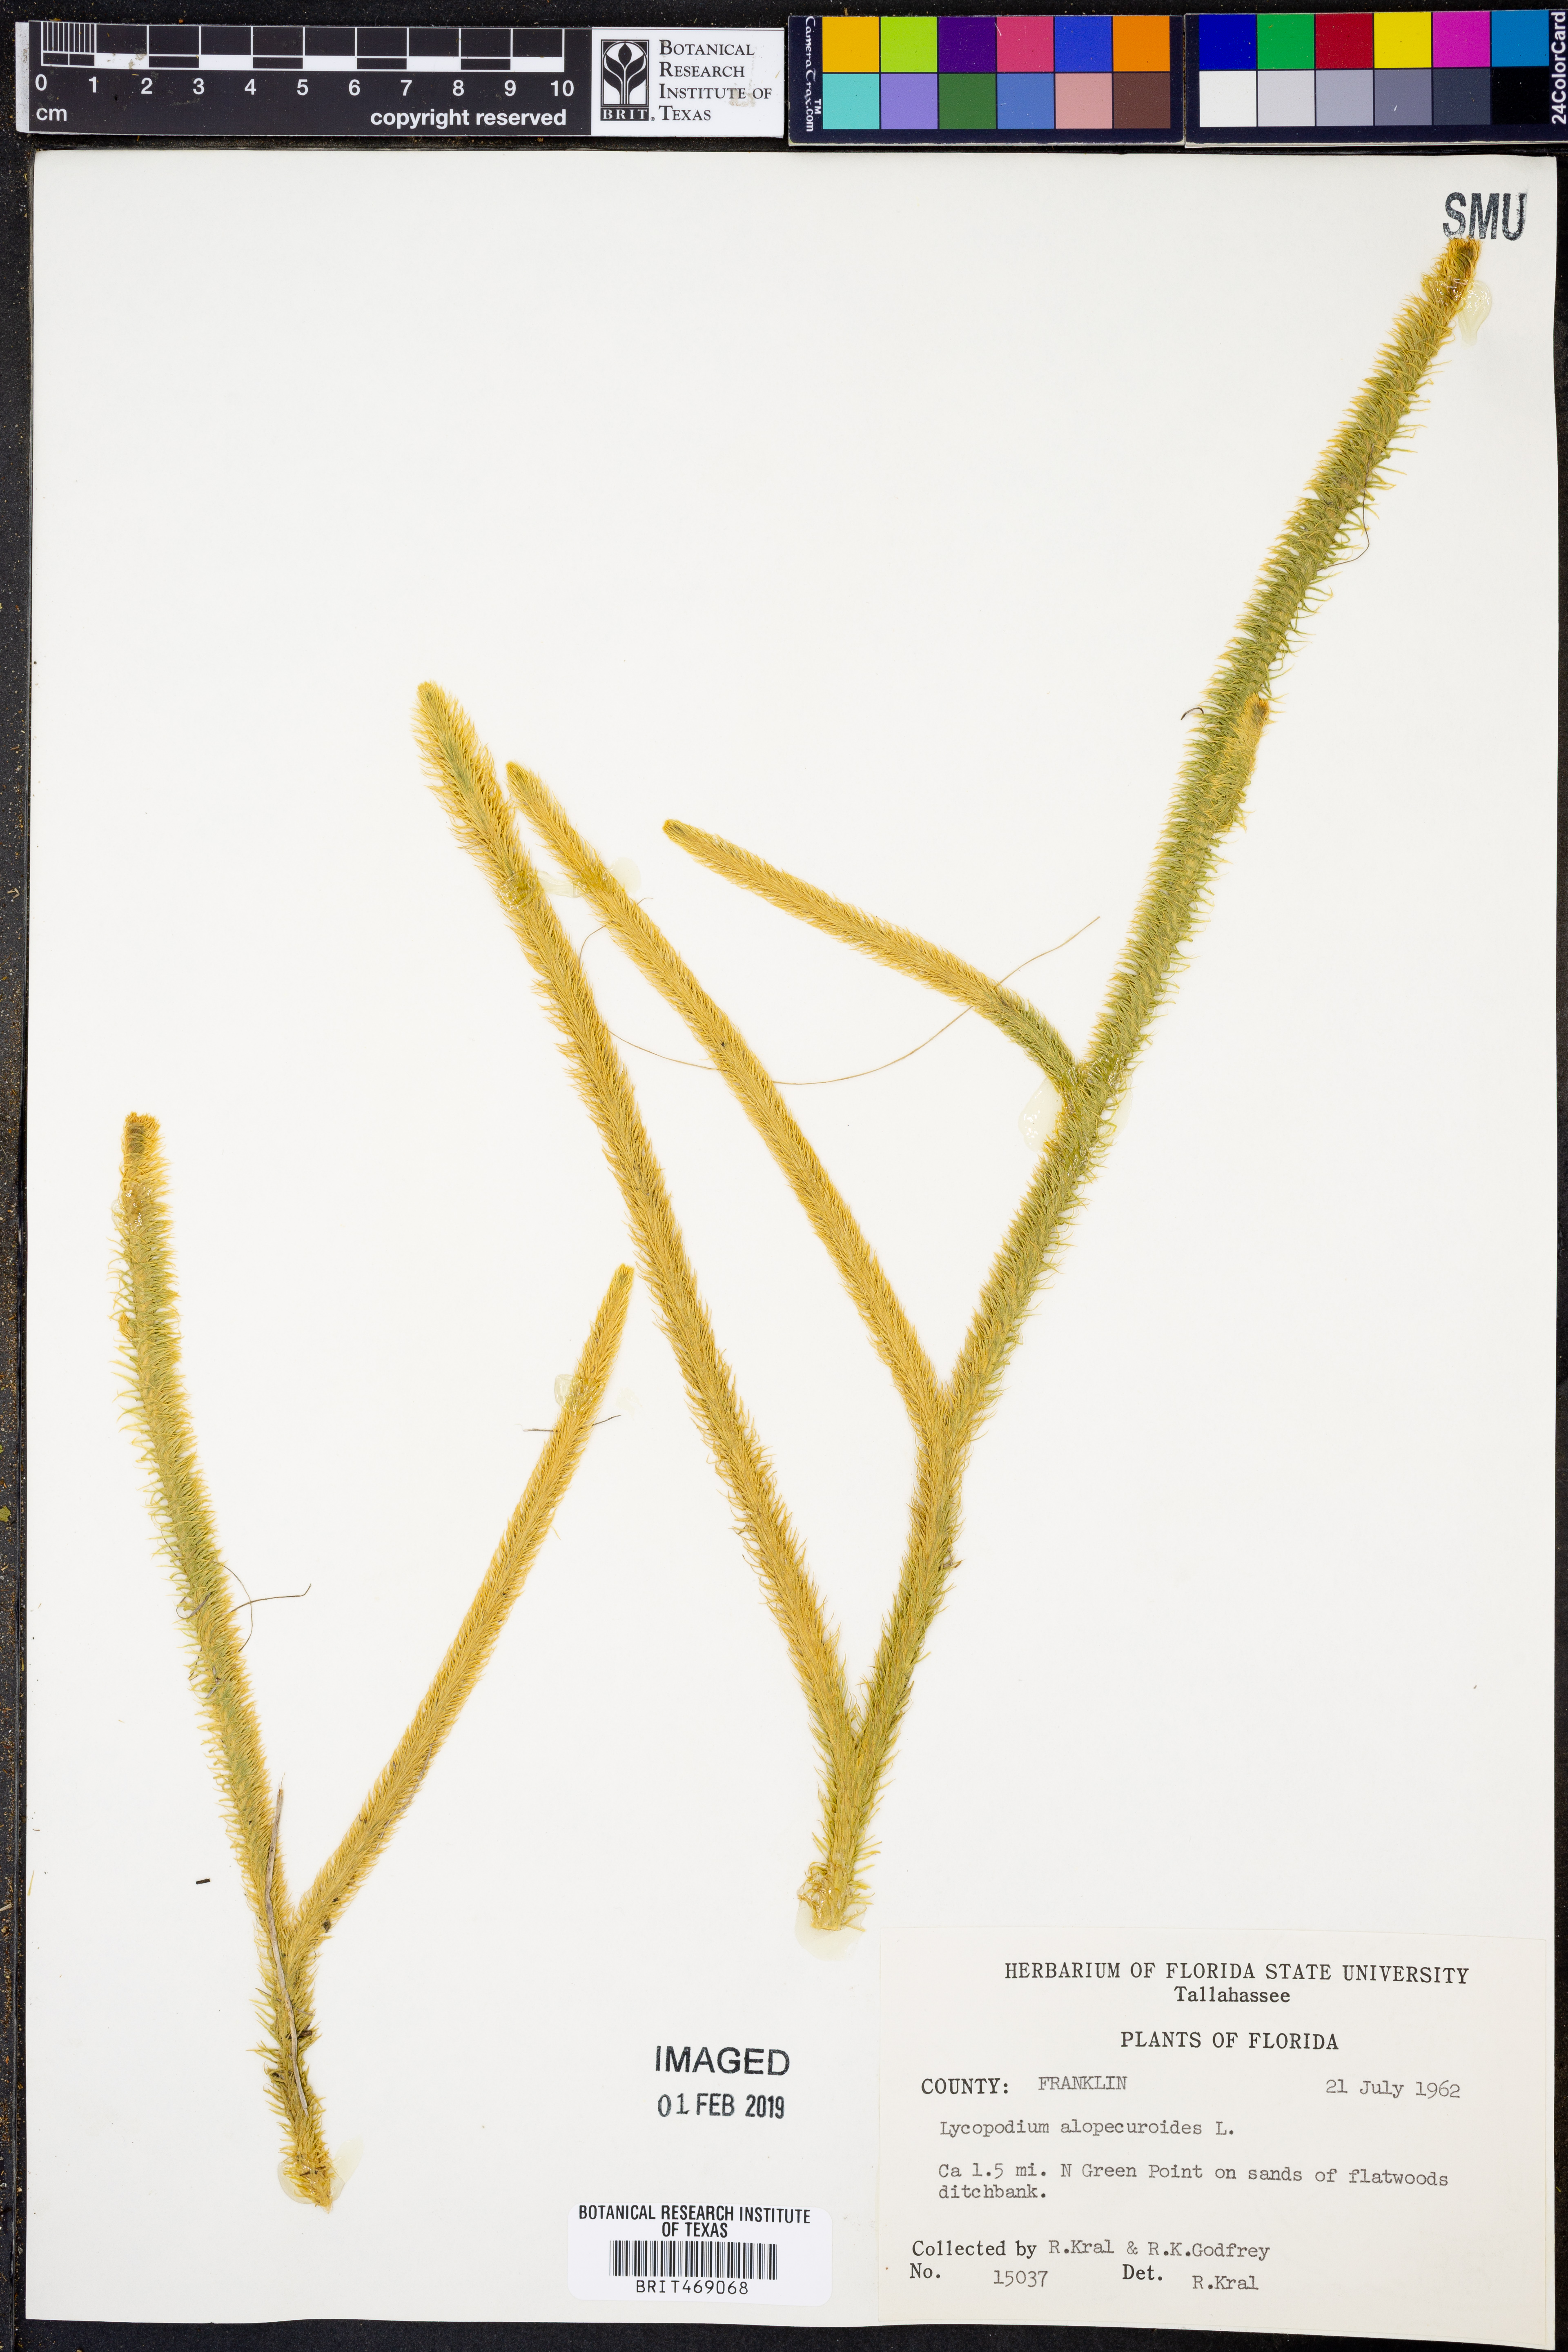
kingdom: Plantae
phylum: Tracheophyta
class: Lycopodiopsida
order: Lycopodiales
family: Lycopodiaceae
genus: Lycopodiella
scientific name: Lycopodiella alopecuroides
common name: Foxtail clubmoss
